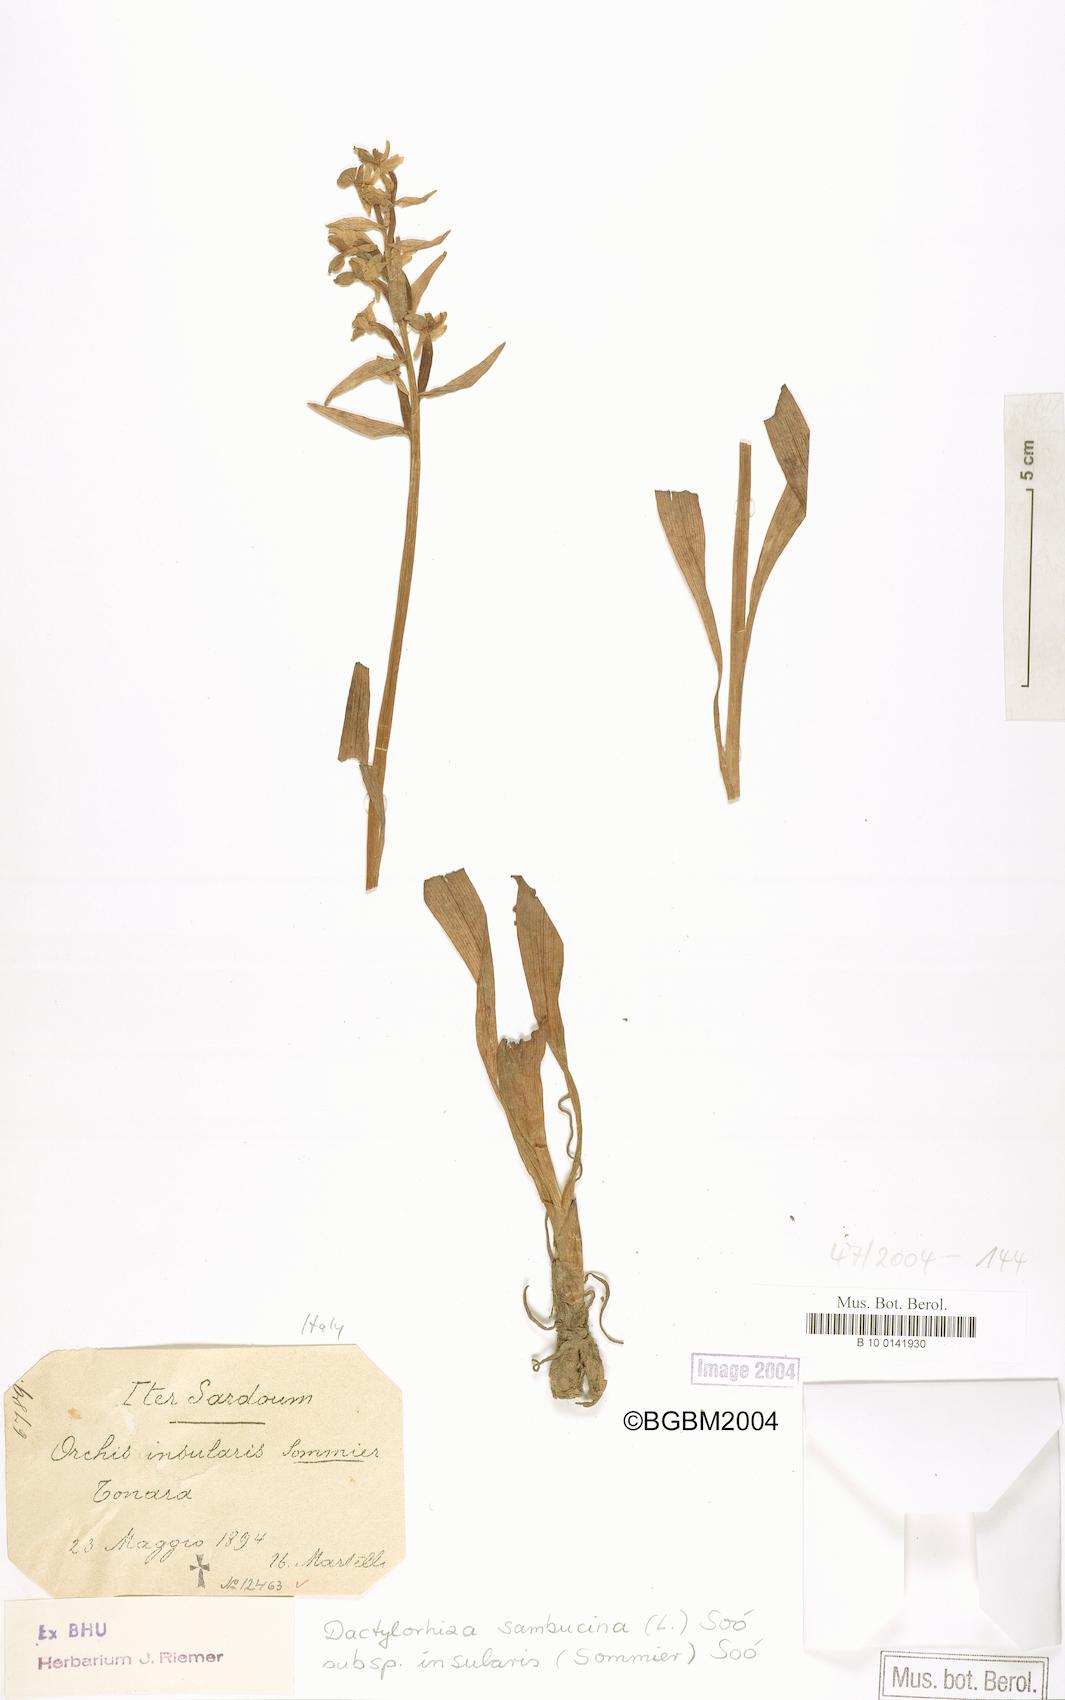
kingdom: Plantae
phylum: Tracheophyta
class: Liliopsida
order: Asparagales
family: Orchidaceae
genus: Dactylorhiza
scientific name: Dactylorhiza insularis
